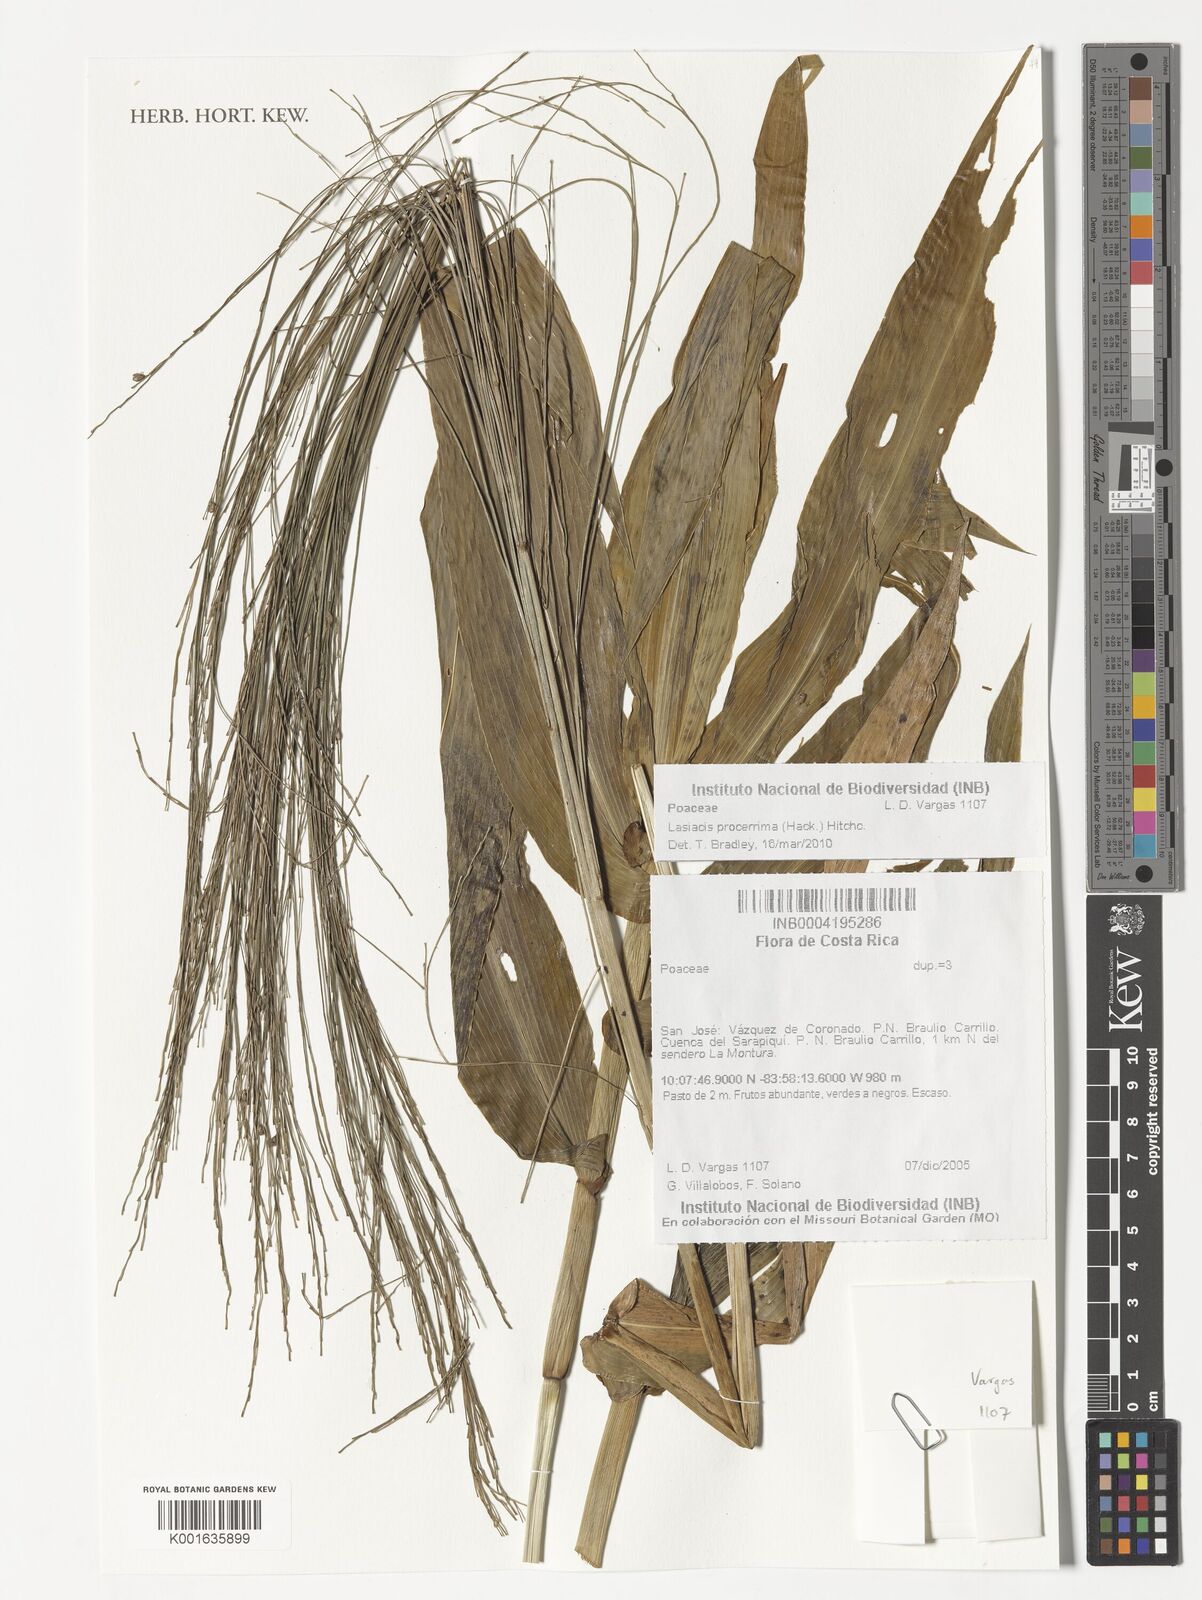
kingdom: Plantae
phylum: Tracheophyta
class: Liliopsida
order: Poales
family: Poaceae
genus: Lasiacis
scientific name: Lasiacis procerrima
